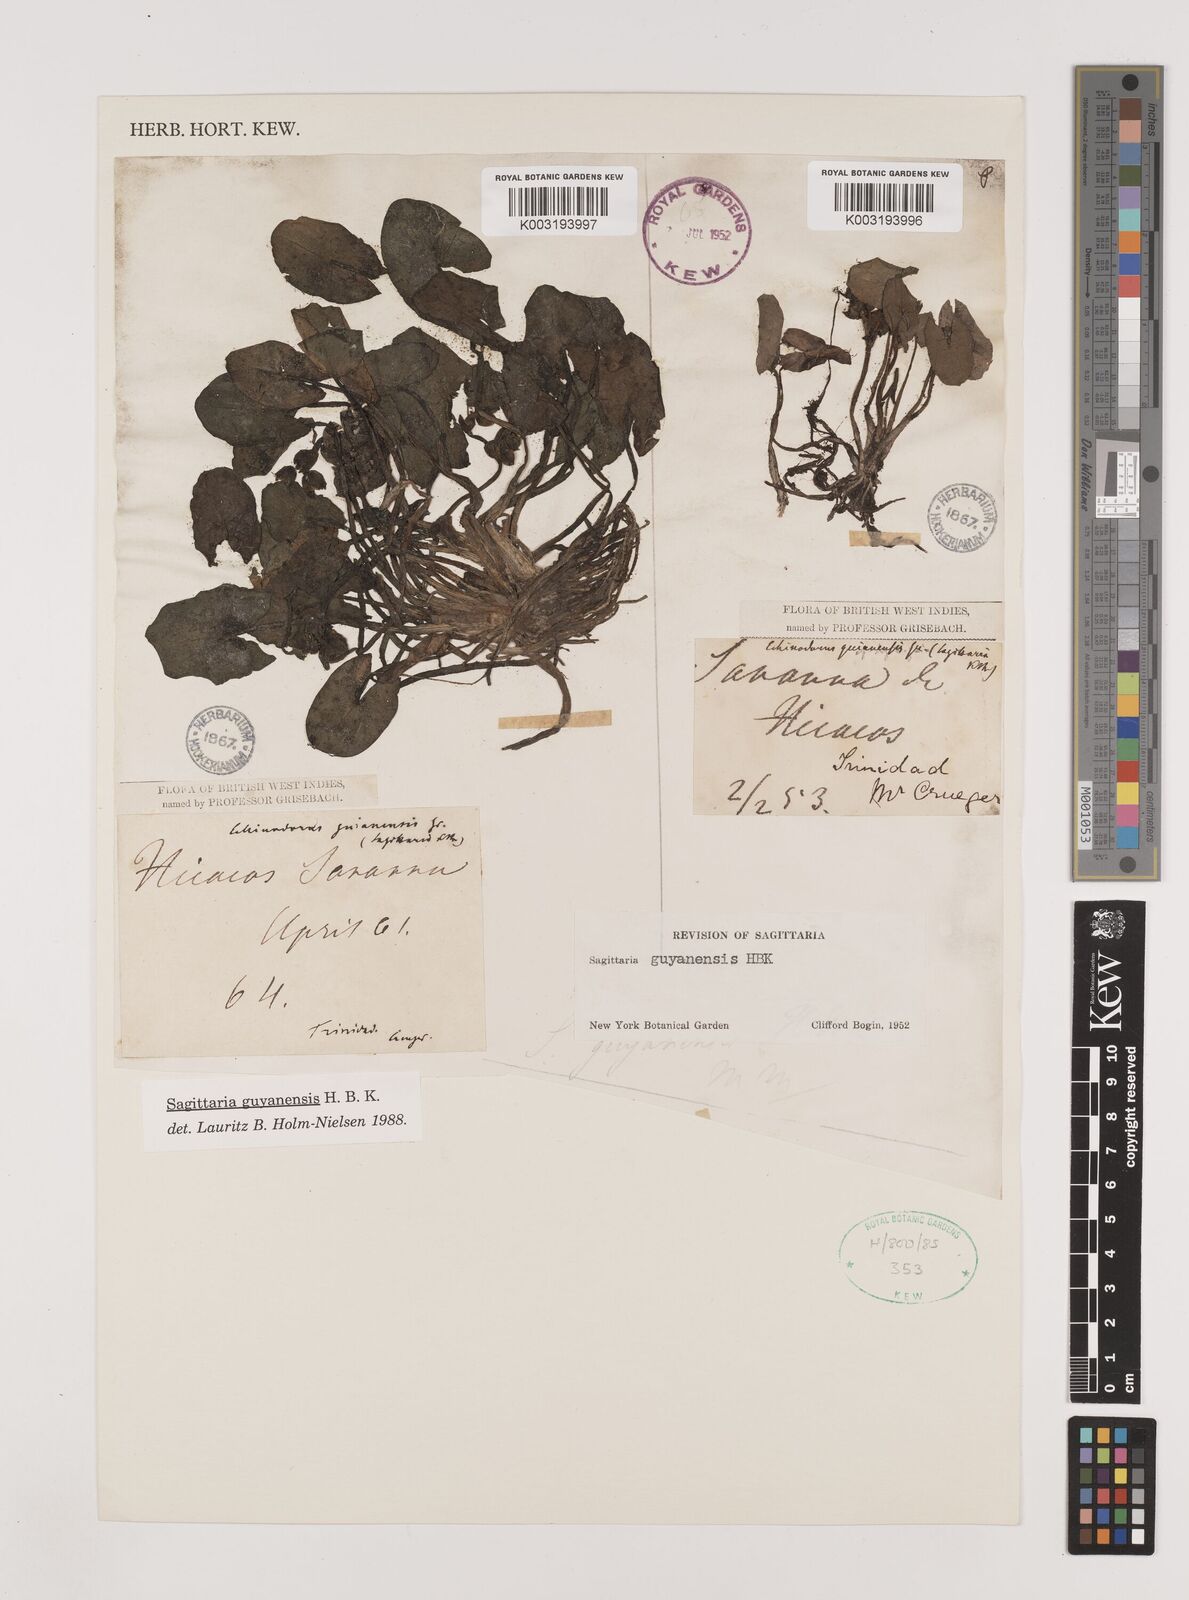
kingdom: Plantae
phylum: Tracheophyta
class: Liliopsida
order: Alismatales
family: Alismataceae
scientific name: Alismataceae
